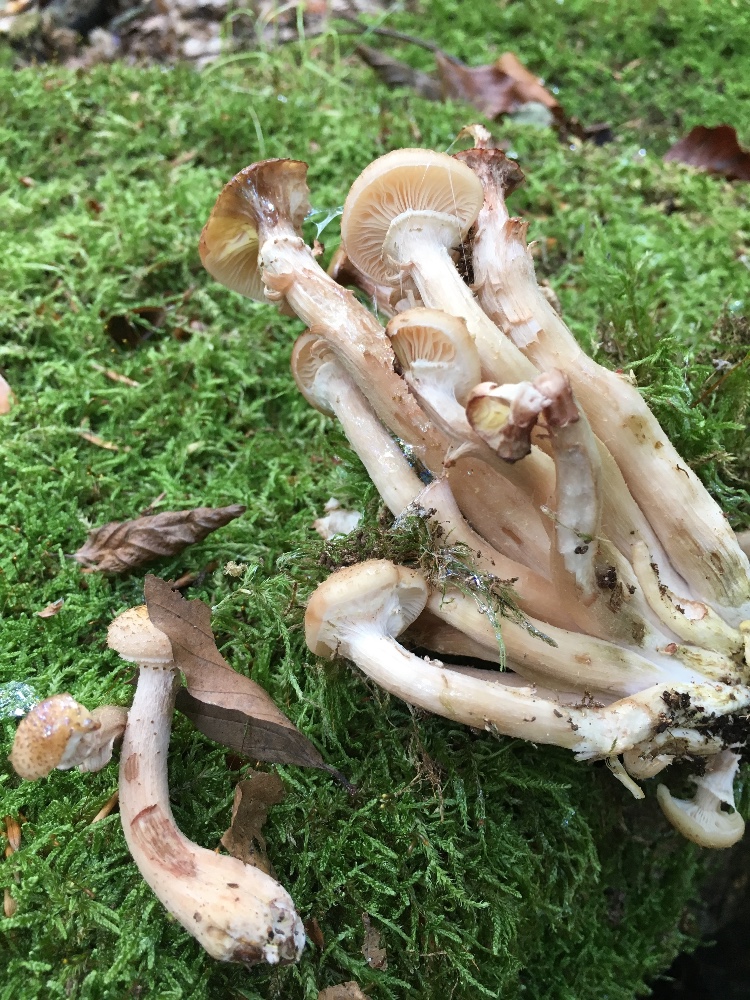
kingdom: Fungi
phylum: Basidiomycota
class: Agaricomycetes
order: Agaricales
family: Physalacriaceae
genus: Armillaria
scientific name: Armillaria lutea
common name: køllestokket honningsvamp
